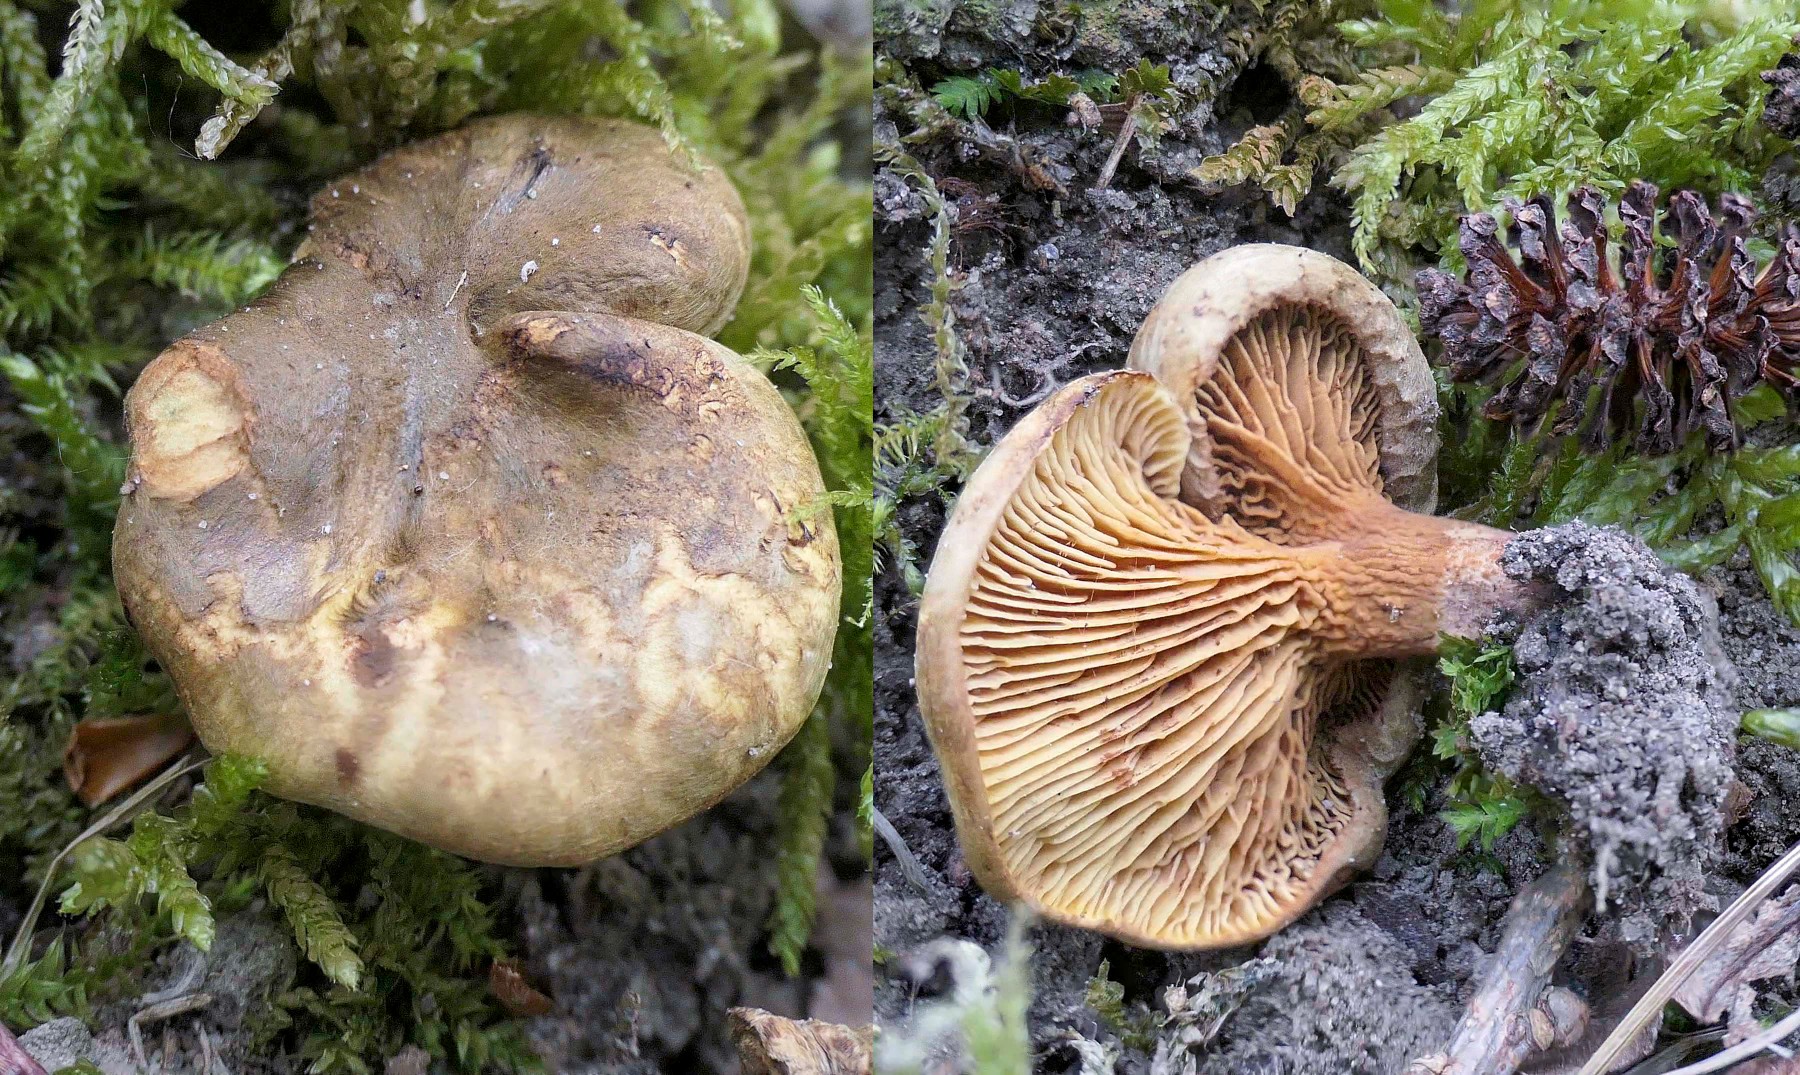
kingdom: Fungi
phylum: Basidiomycota
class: Agaricomycetes
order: Boletales
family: Paxillaceae
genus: Paxillus
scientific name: Paxillus rubicundulus
